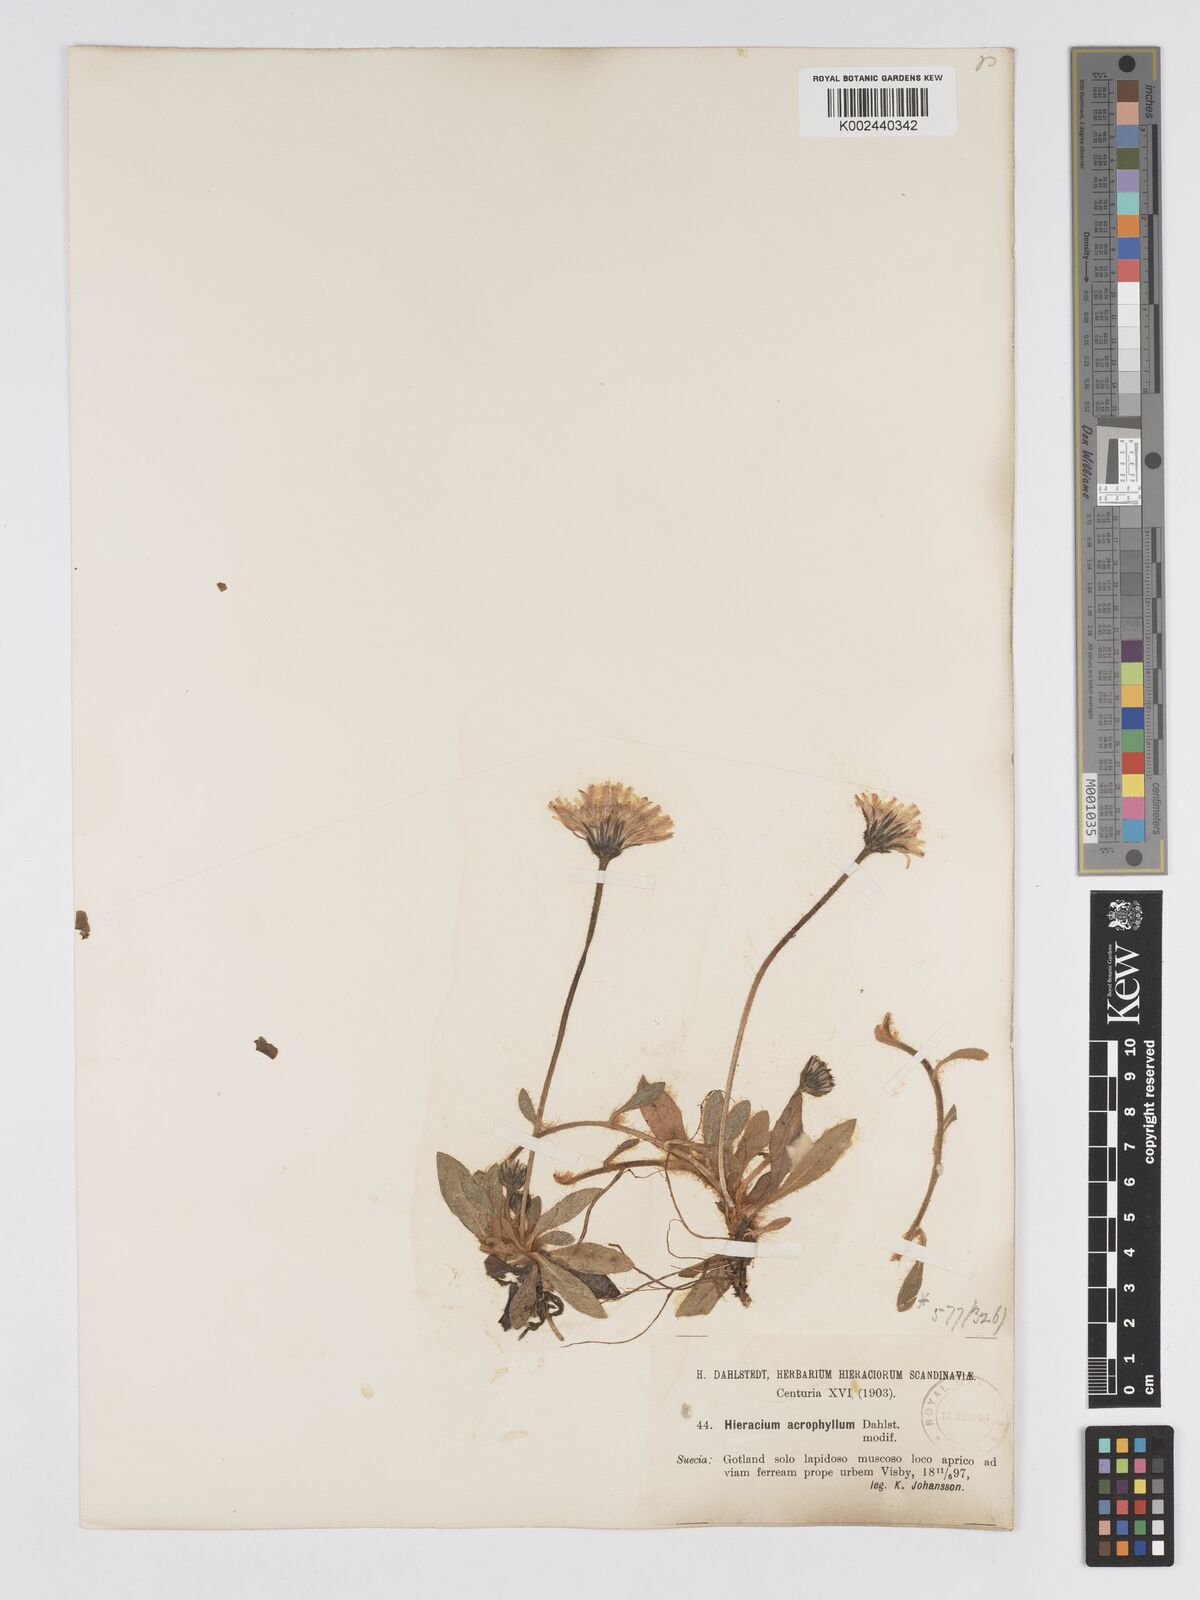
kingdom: Plantae
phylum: Tracheophyta
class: Magnoliopsida
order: Asterales
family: Asteraceae
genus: Pilosella
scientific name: Pilosella officinarum
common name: Mouse-ear hawkweed
